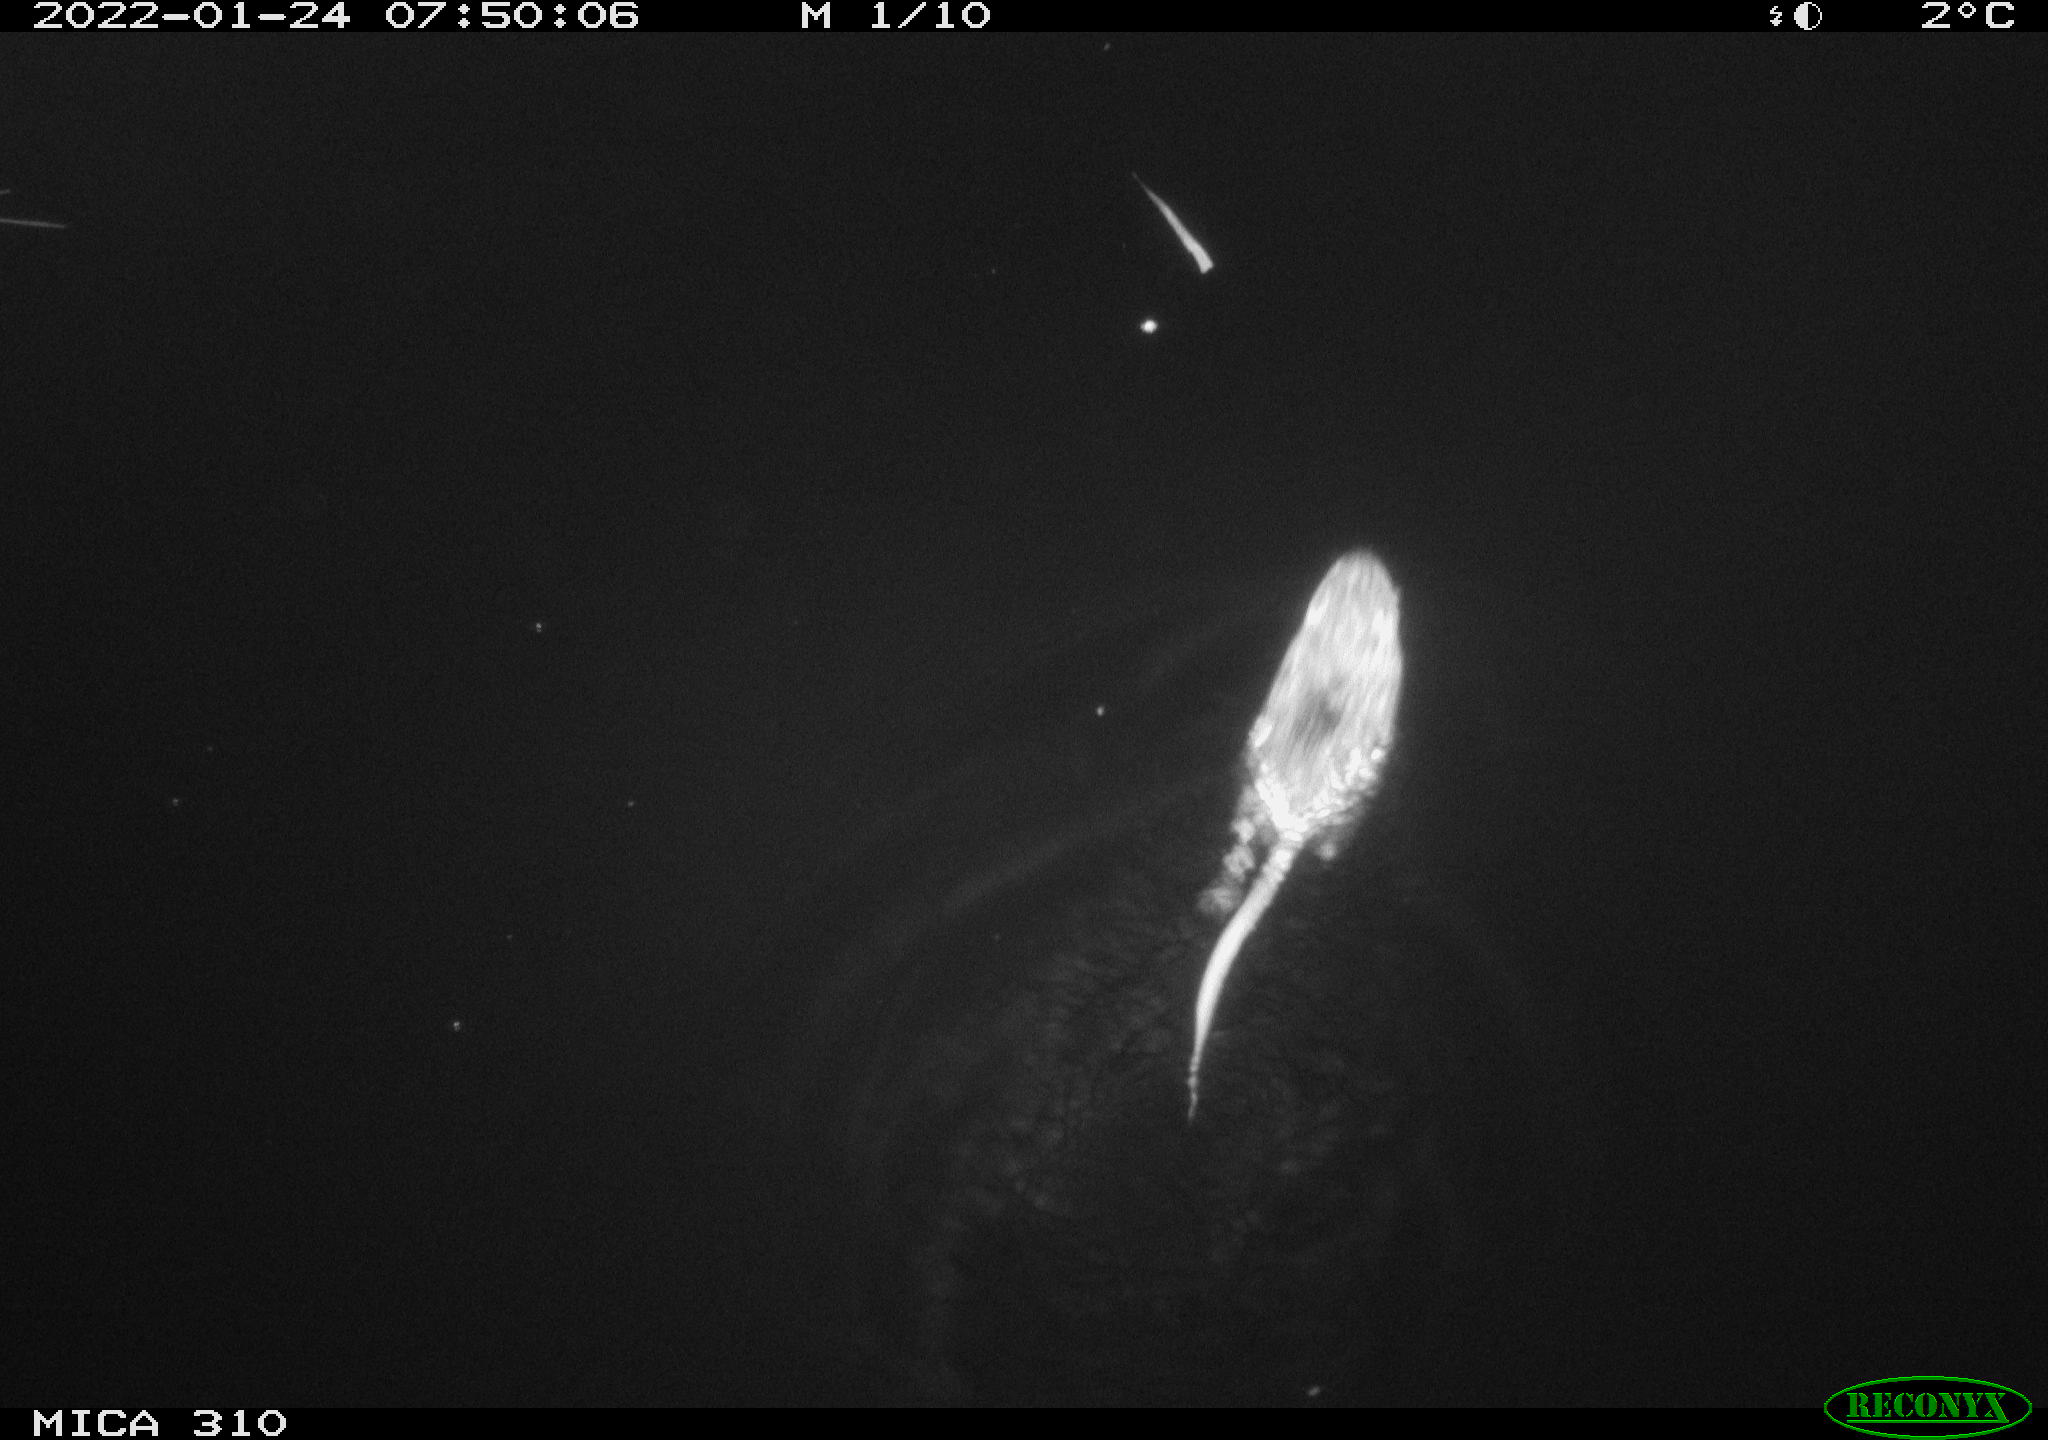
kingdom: Animalia
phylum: Chordata
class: Mammalia
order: Rodentia
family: Cricetidae
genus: Ondatra
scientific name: Ondatra zibethicus
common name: Muskrat
